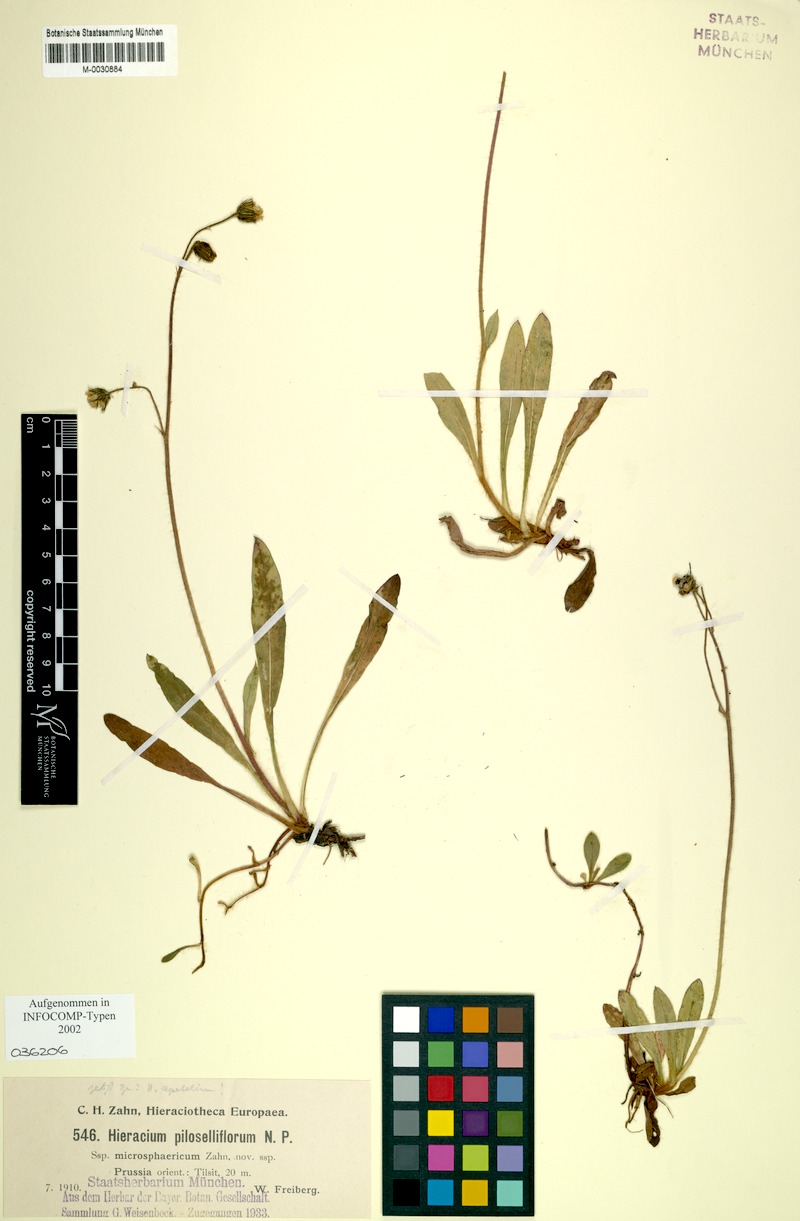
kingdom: Plantae
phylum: Tracheophyta
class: Magnoliopsida
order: Asterales
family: Asteraceae
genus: Pilosella
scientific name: Pilosella piloselliflora
